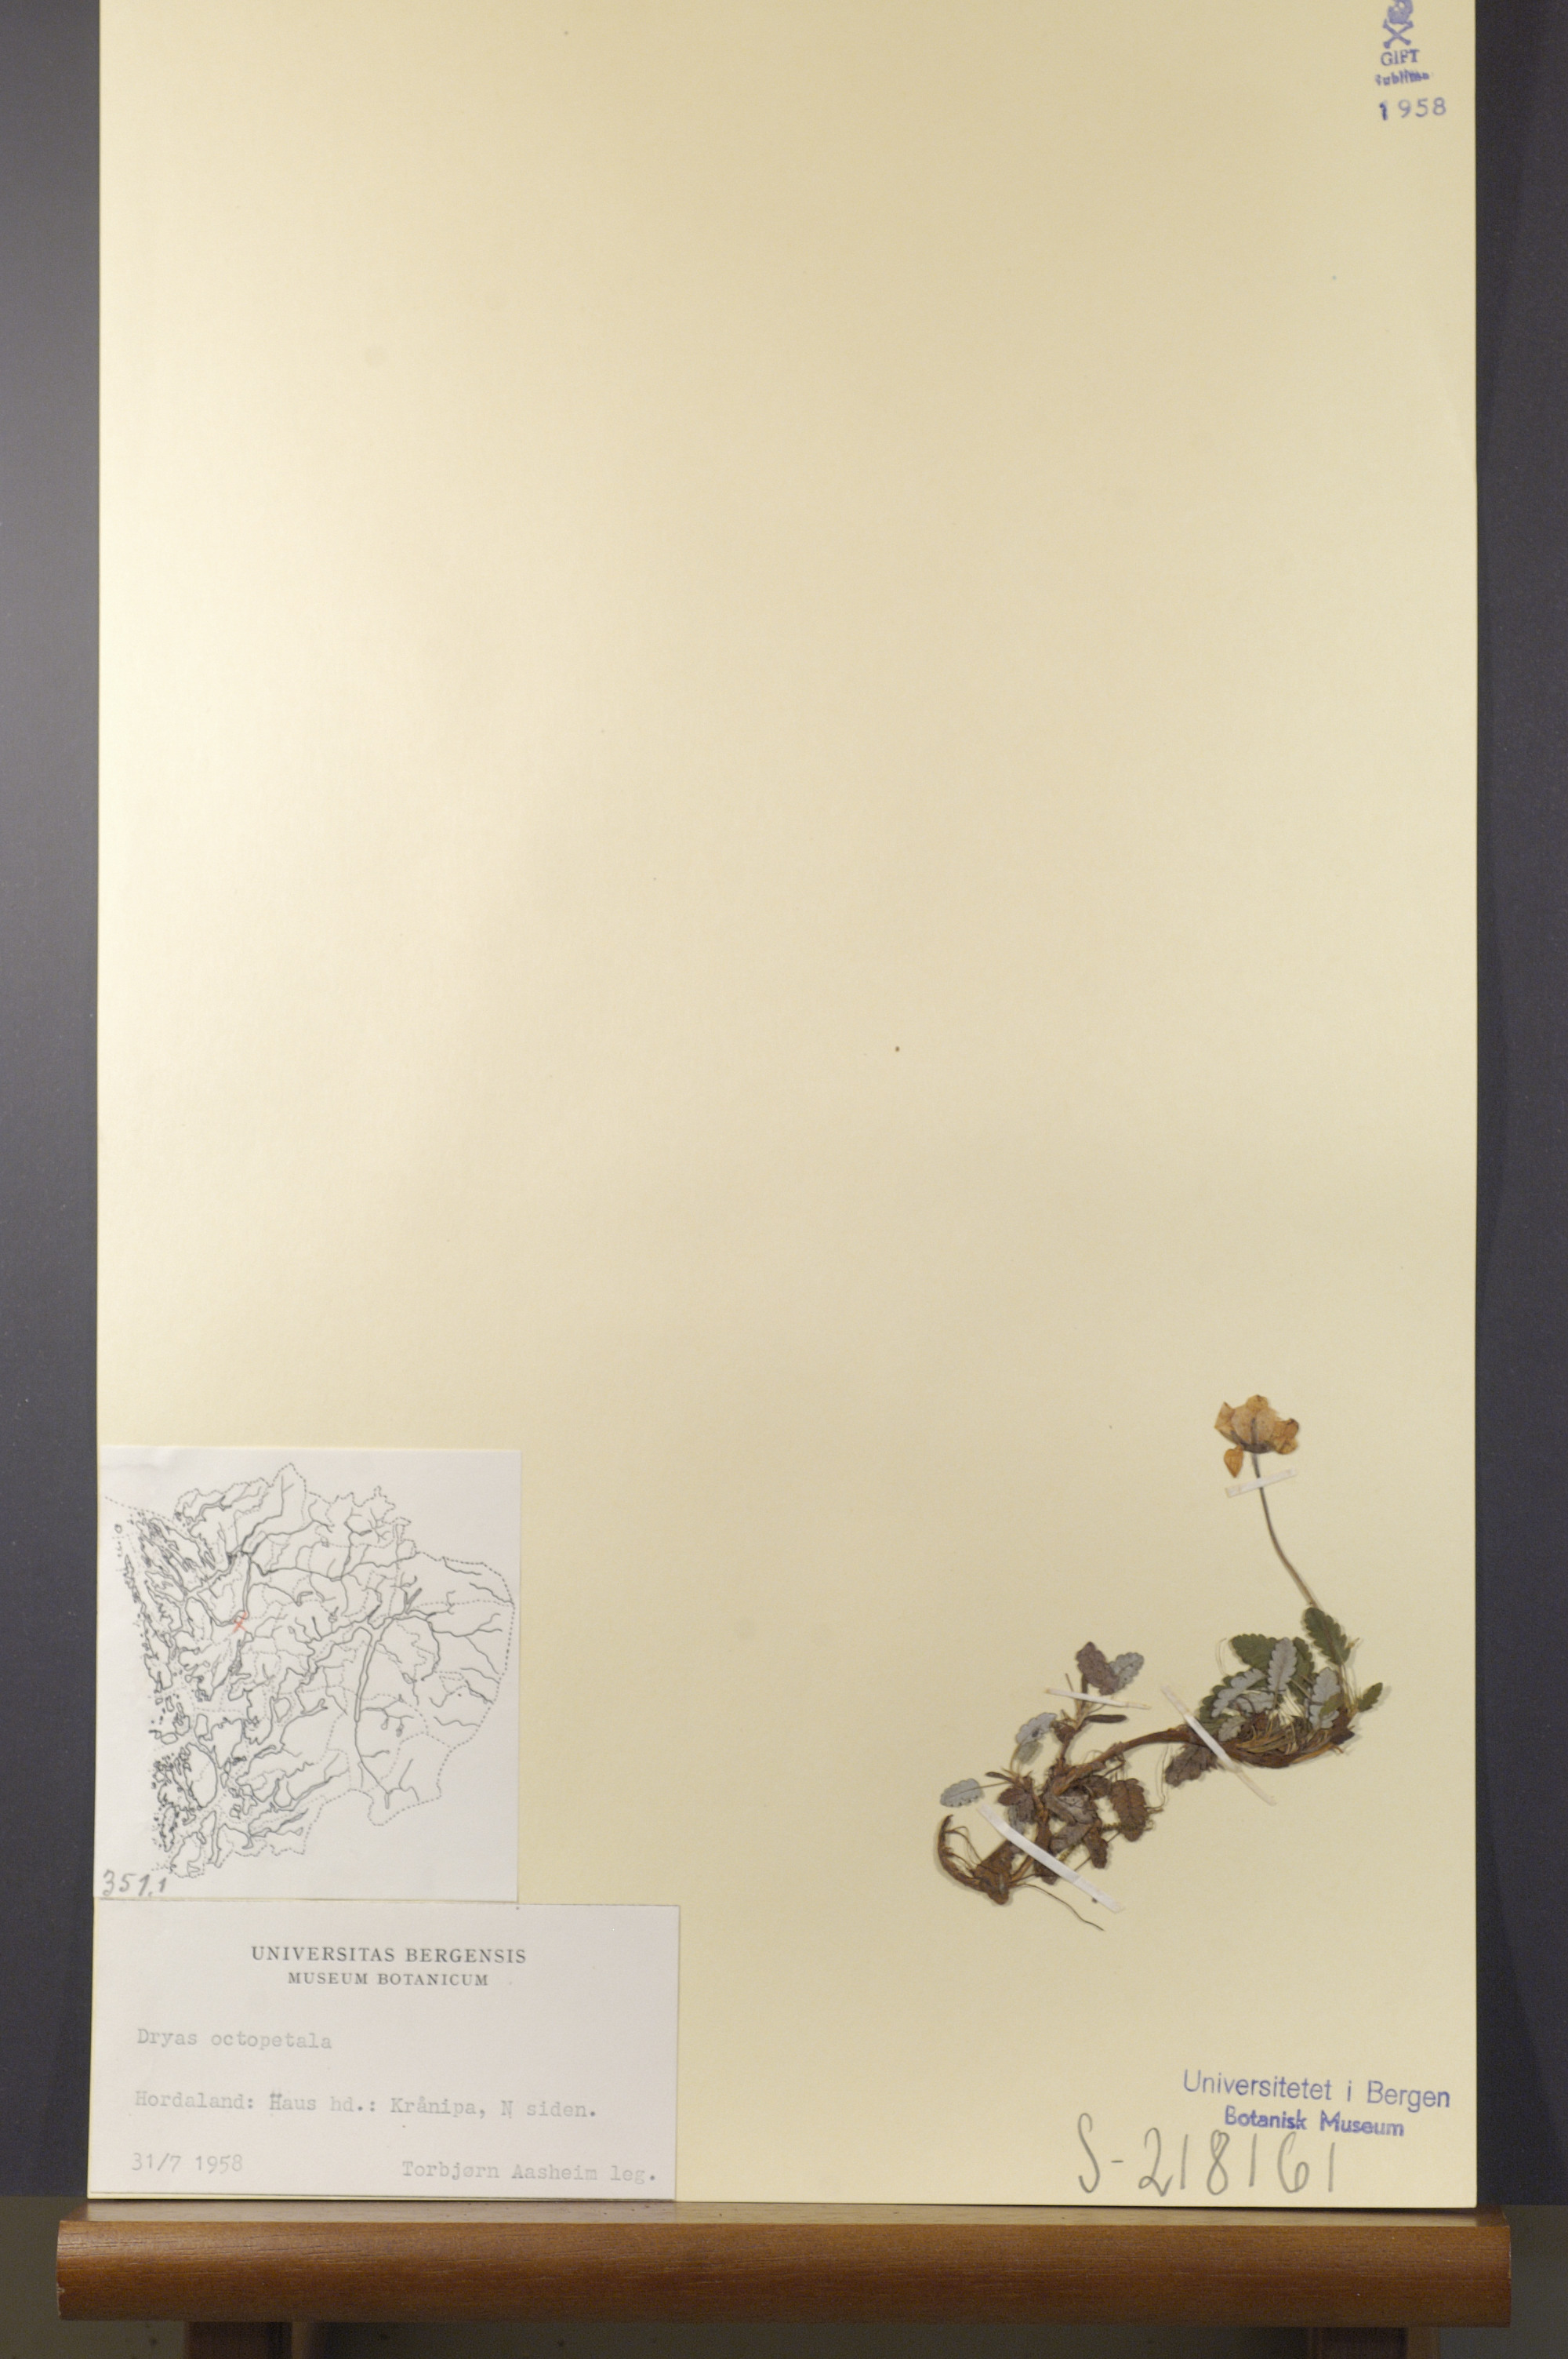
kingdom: Plantae
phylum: Tracheophyta
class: Magnoliopsida
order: Rosales
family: Rosaceae
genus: Dryas
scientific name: Dryas octopetala
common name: Eight-petal mountain-avens
